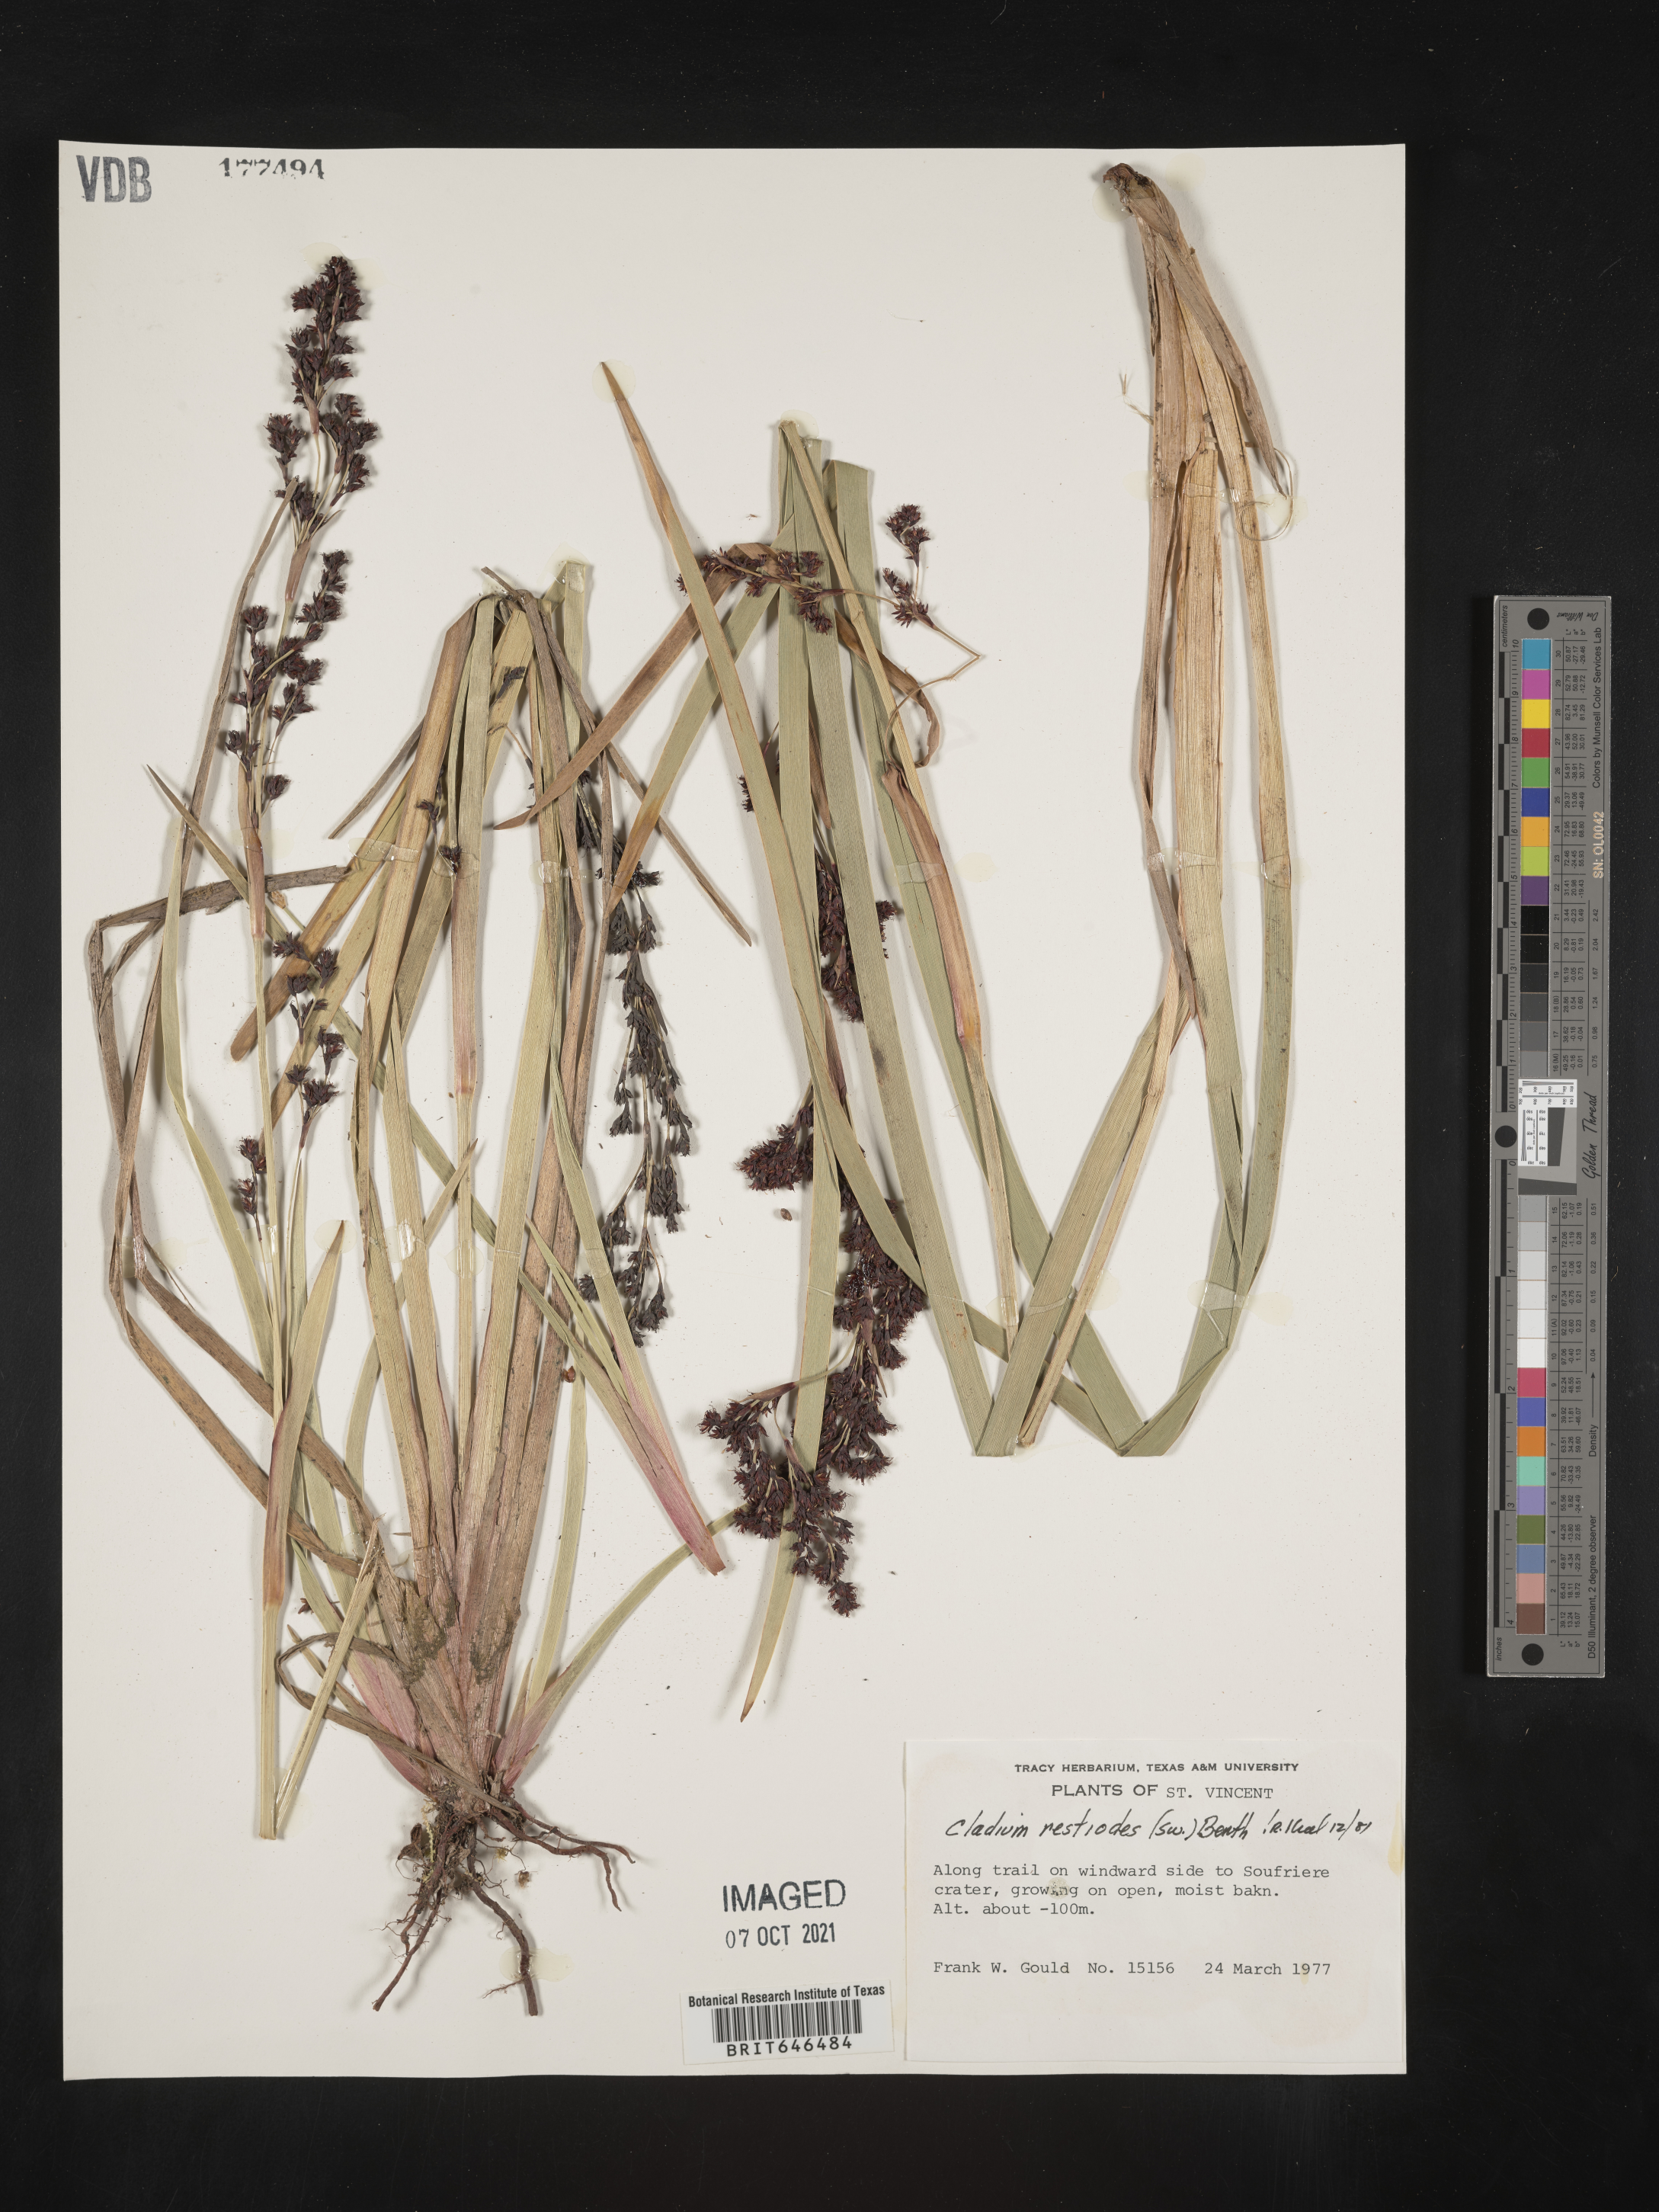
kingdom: Plantae
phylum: Tracheophyta
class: Liliopsida
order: Poales
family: Cyperaceae
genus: Machaerina
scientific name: Machaerina restioides
